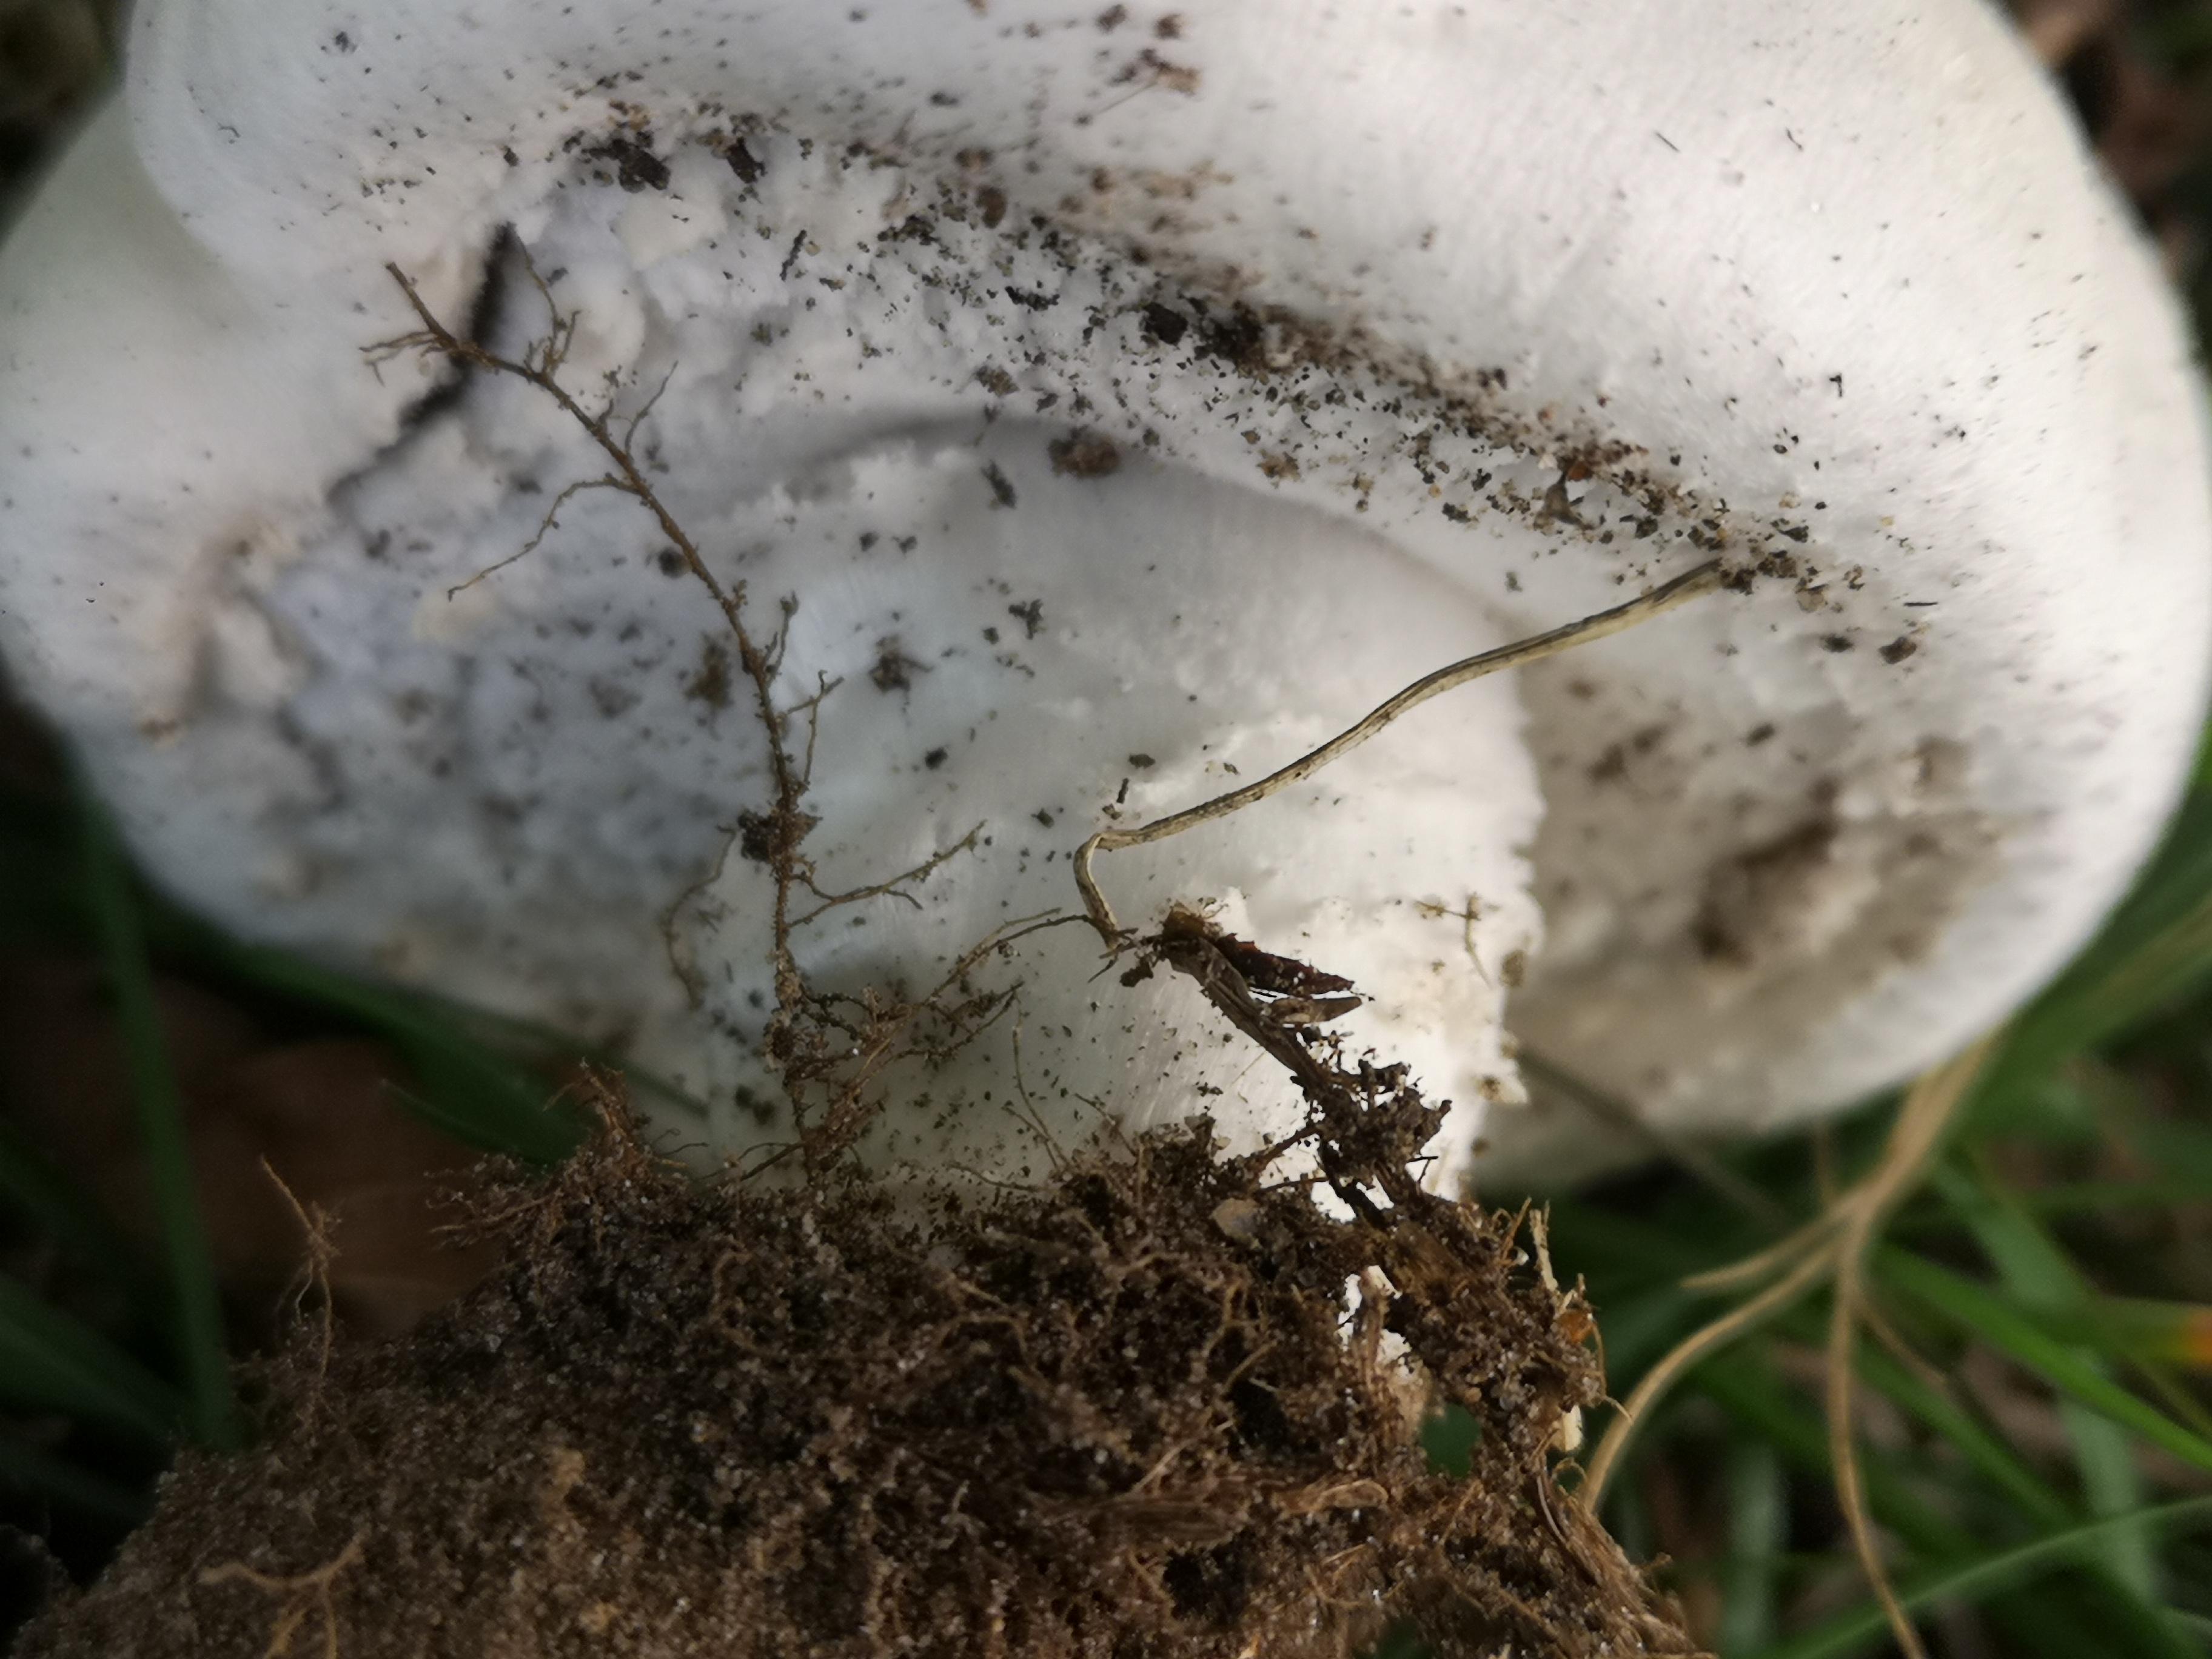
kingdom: Fungi
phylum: Basidiomycota
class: Agaricomycetes
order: Agaricales
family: Agaricaceae
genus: Agaricus
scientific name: Agaricus
